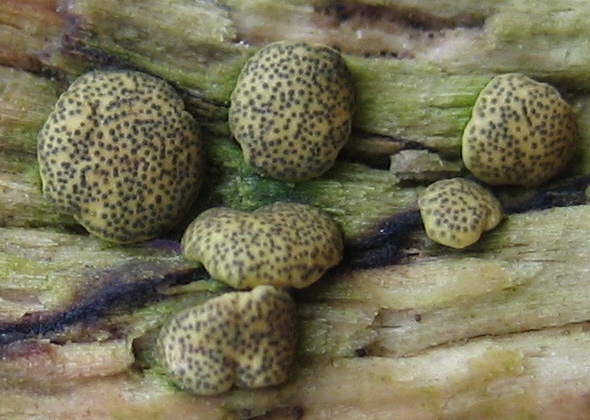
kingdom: Fungi
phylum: Ascomycota
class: Sordariomycetes
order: Hypocreales
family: Hypocreaceae
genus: Trichoderma
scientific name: Trichoderma
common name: kødkerne
